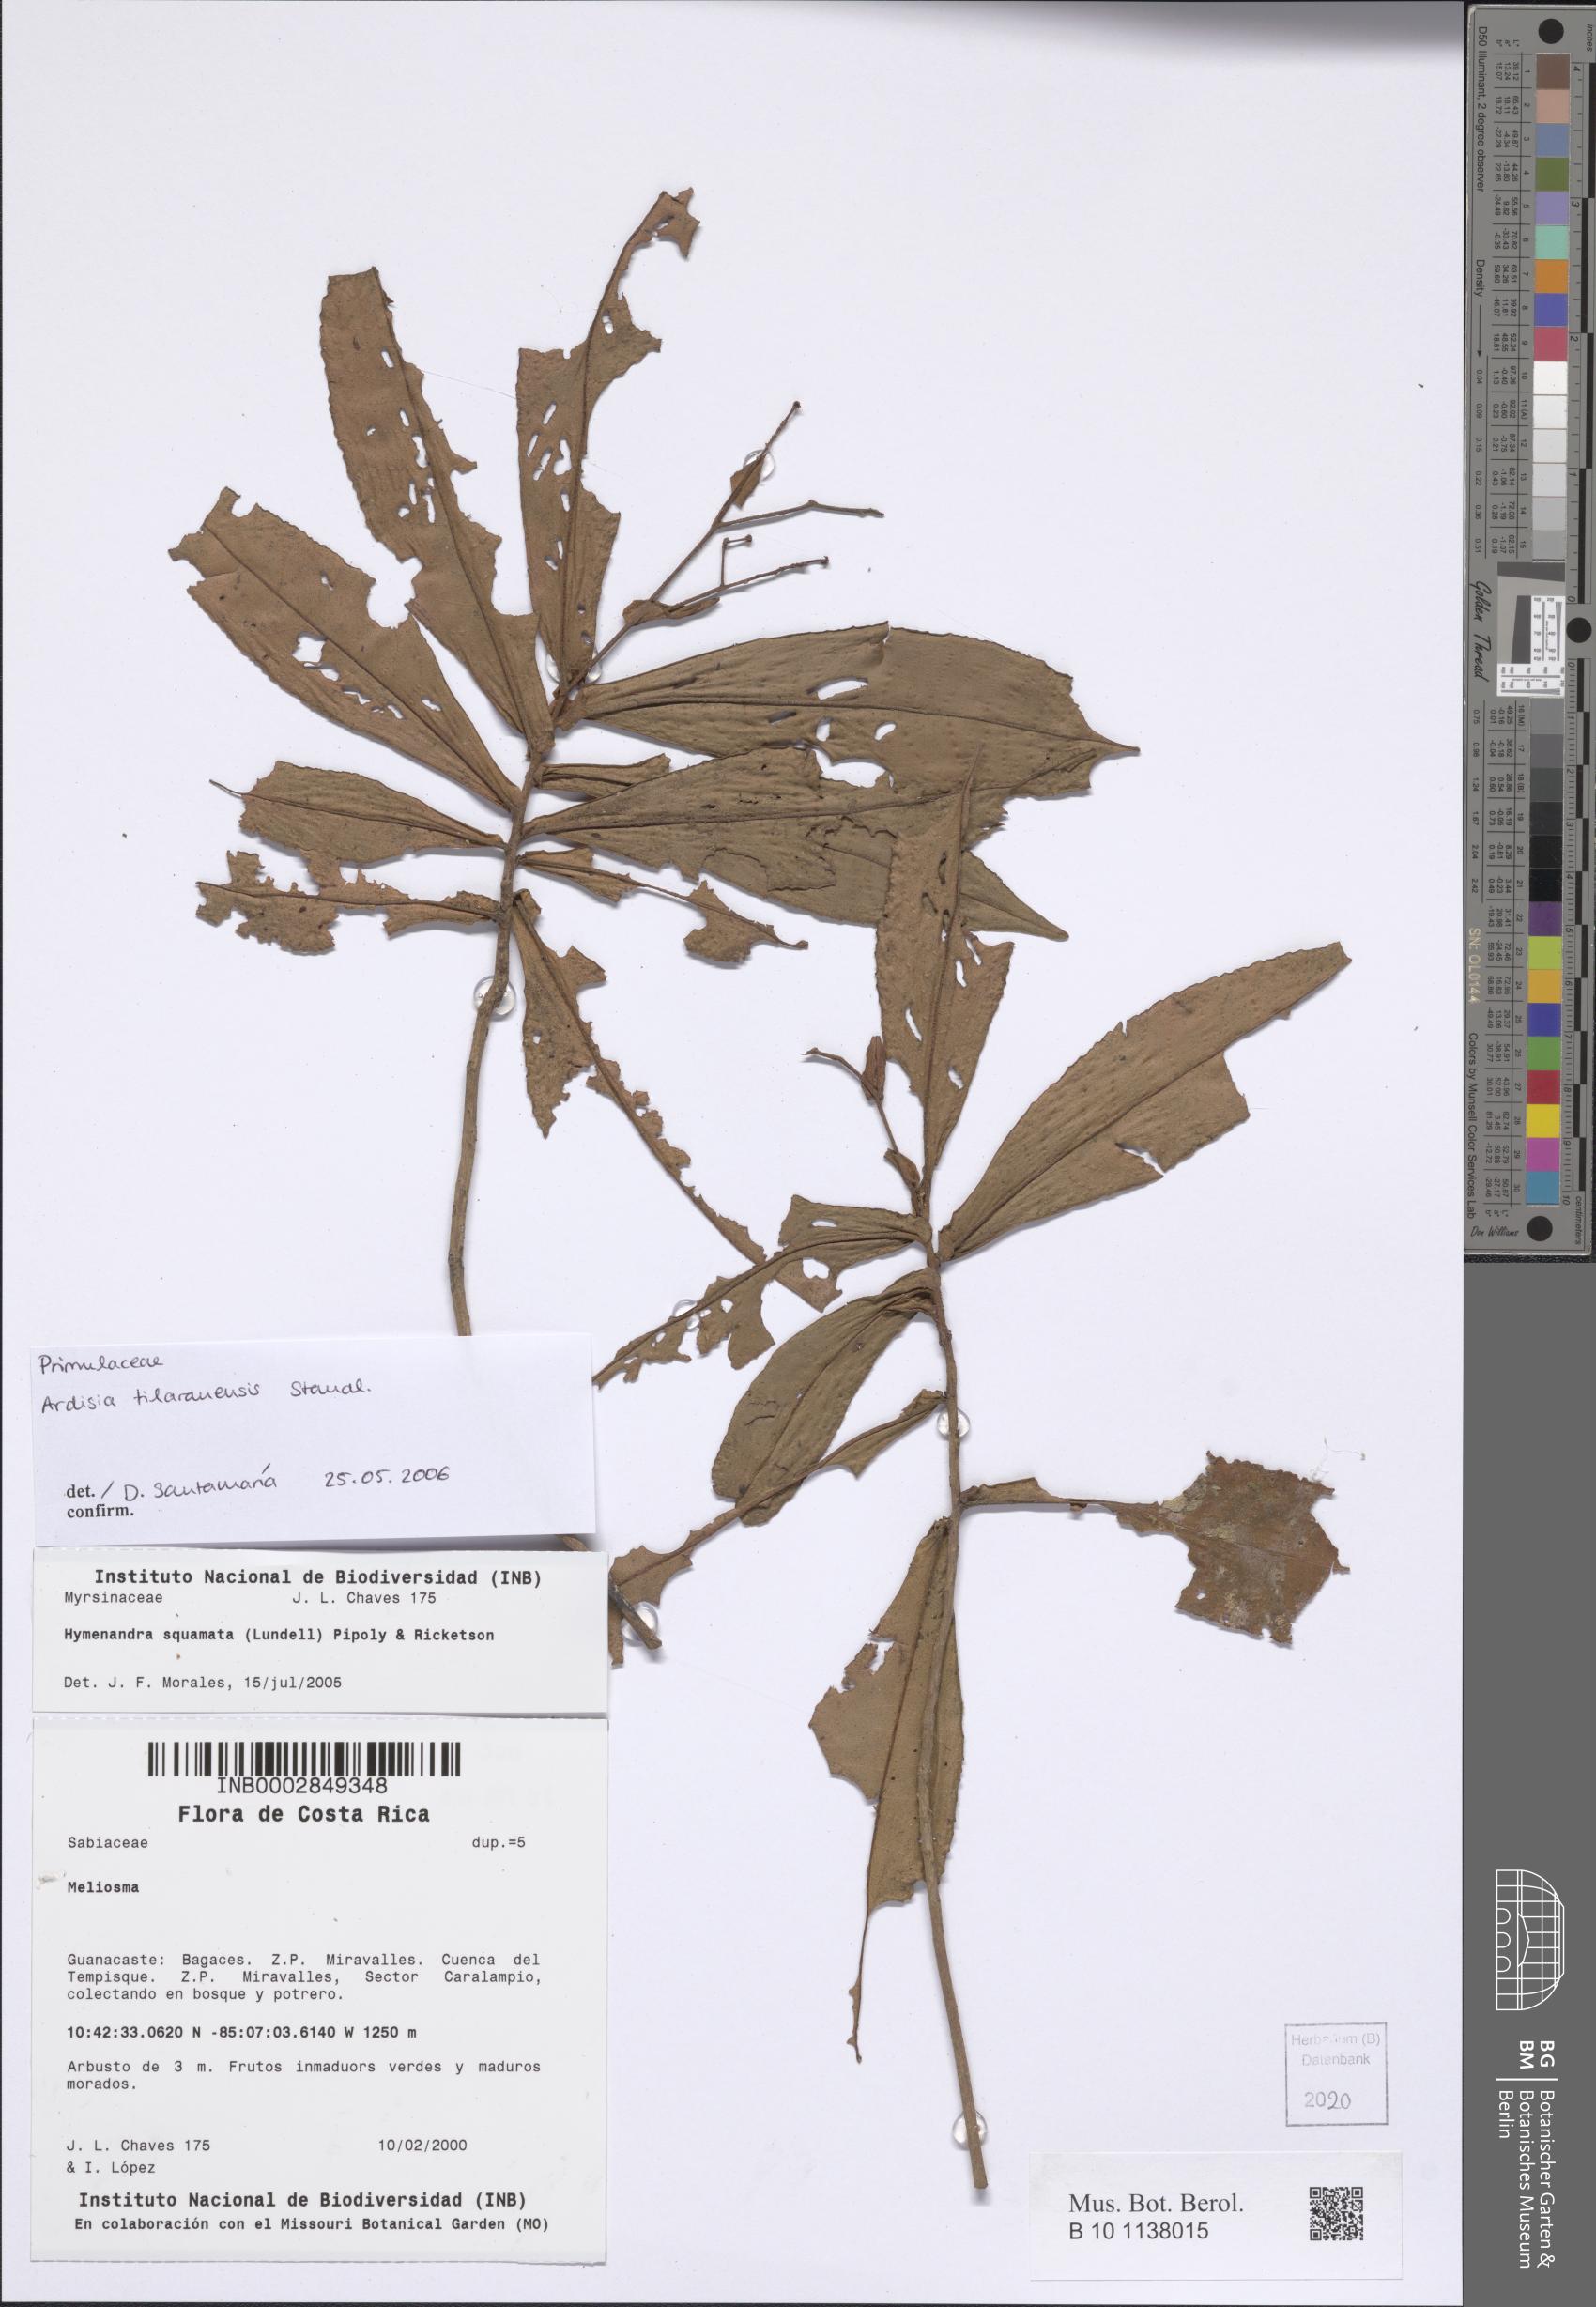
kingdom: Plantae
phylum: Tracheophyta
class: Magnoliopsida
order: Ericales
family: Primulaceae
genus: Ardisia
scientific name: Ardisia tilaranensis
